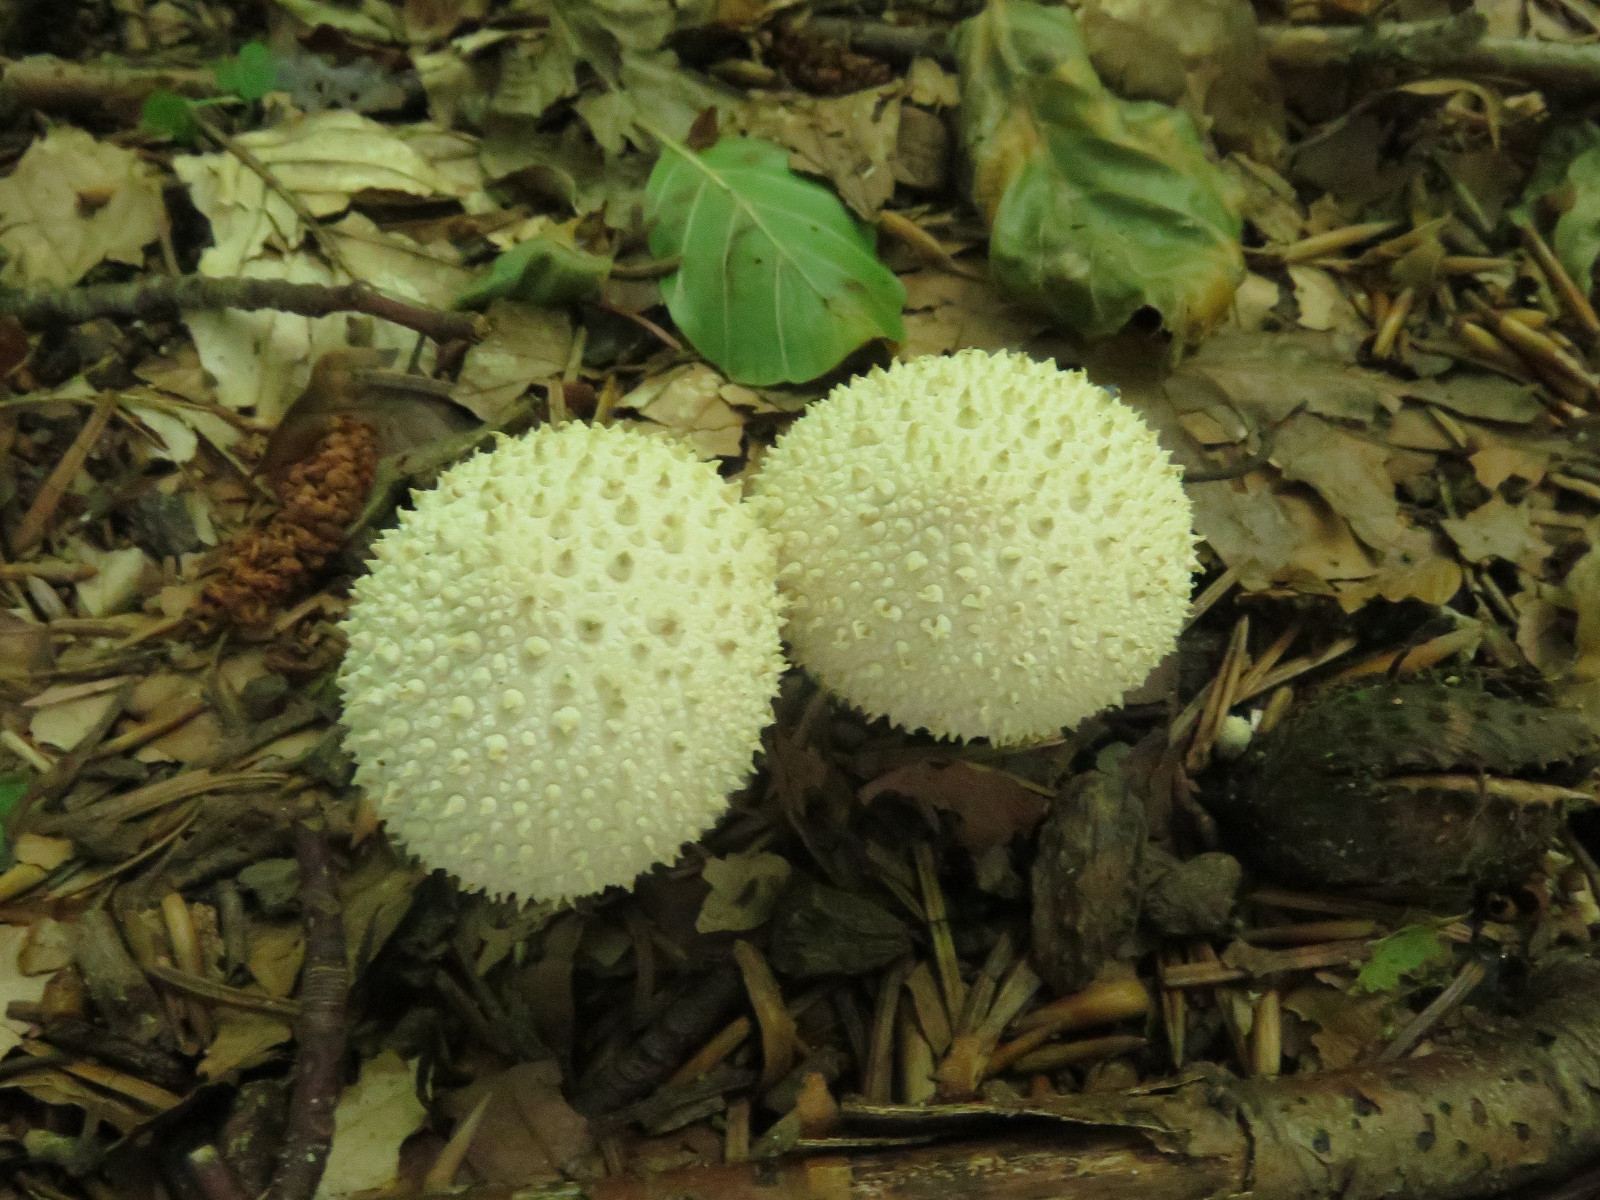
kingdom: Fungi
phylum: Basidiomycota
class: Agaricomycetes
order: Agaricales
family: Lycoperdaceae
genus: Lycoperdon
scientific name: Lycoperdon perlatum
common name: krystal-støvbold
